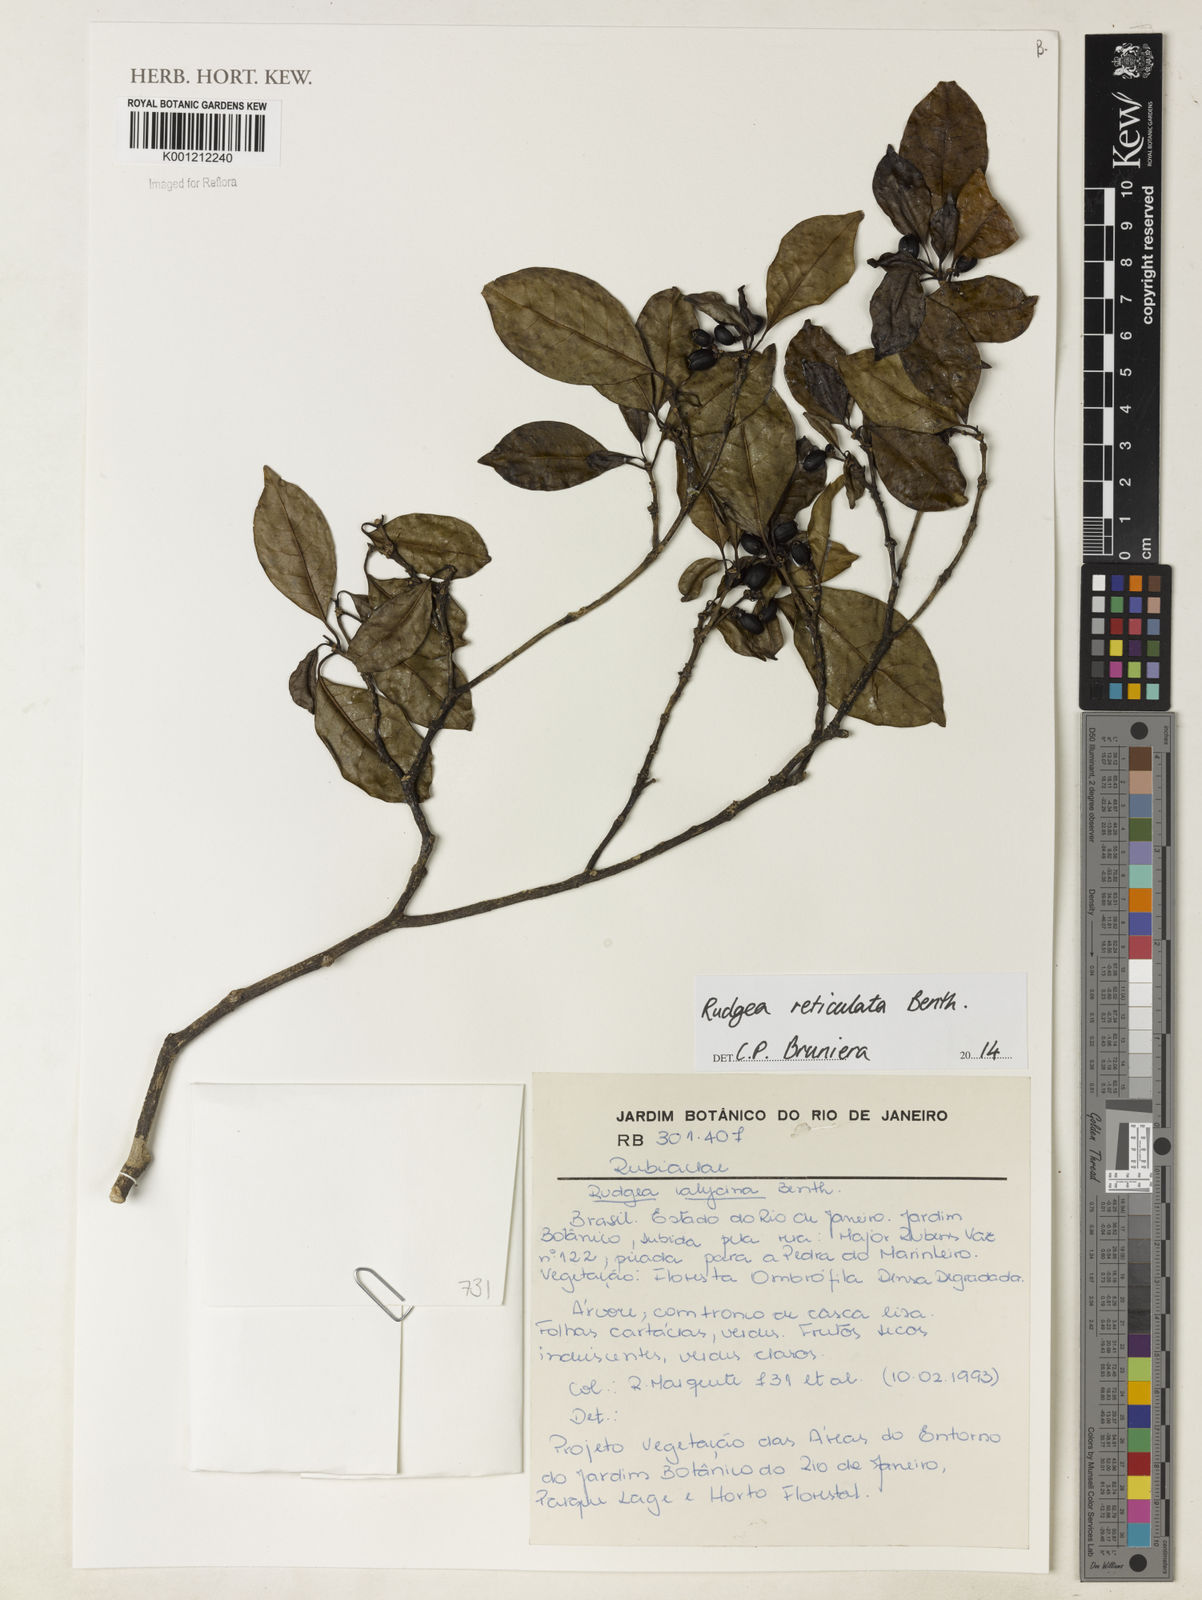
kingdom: Plantae
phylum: Tracheophyta
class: Magnoliopsida
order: Gentianales
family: Rubiaceae
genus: Rudgea
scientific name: Rudgea reticulata
